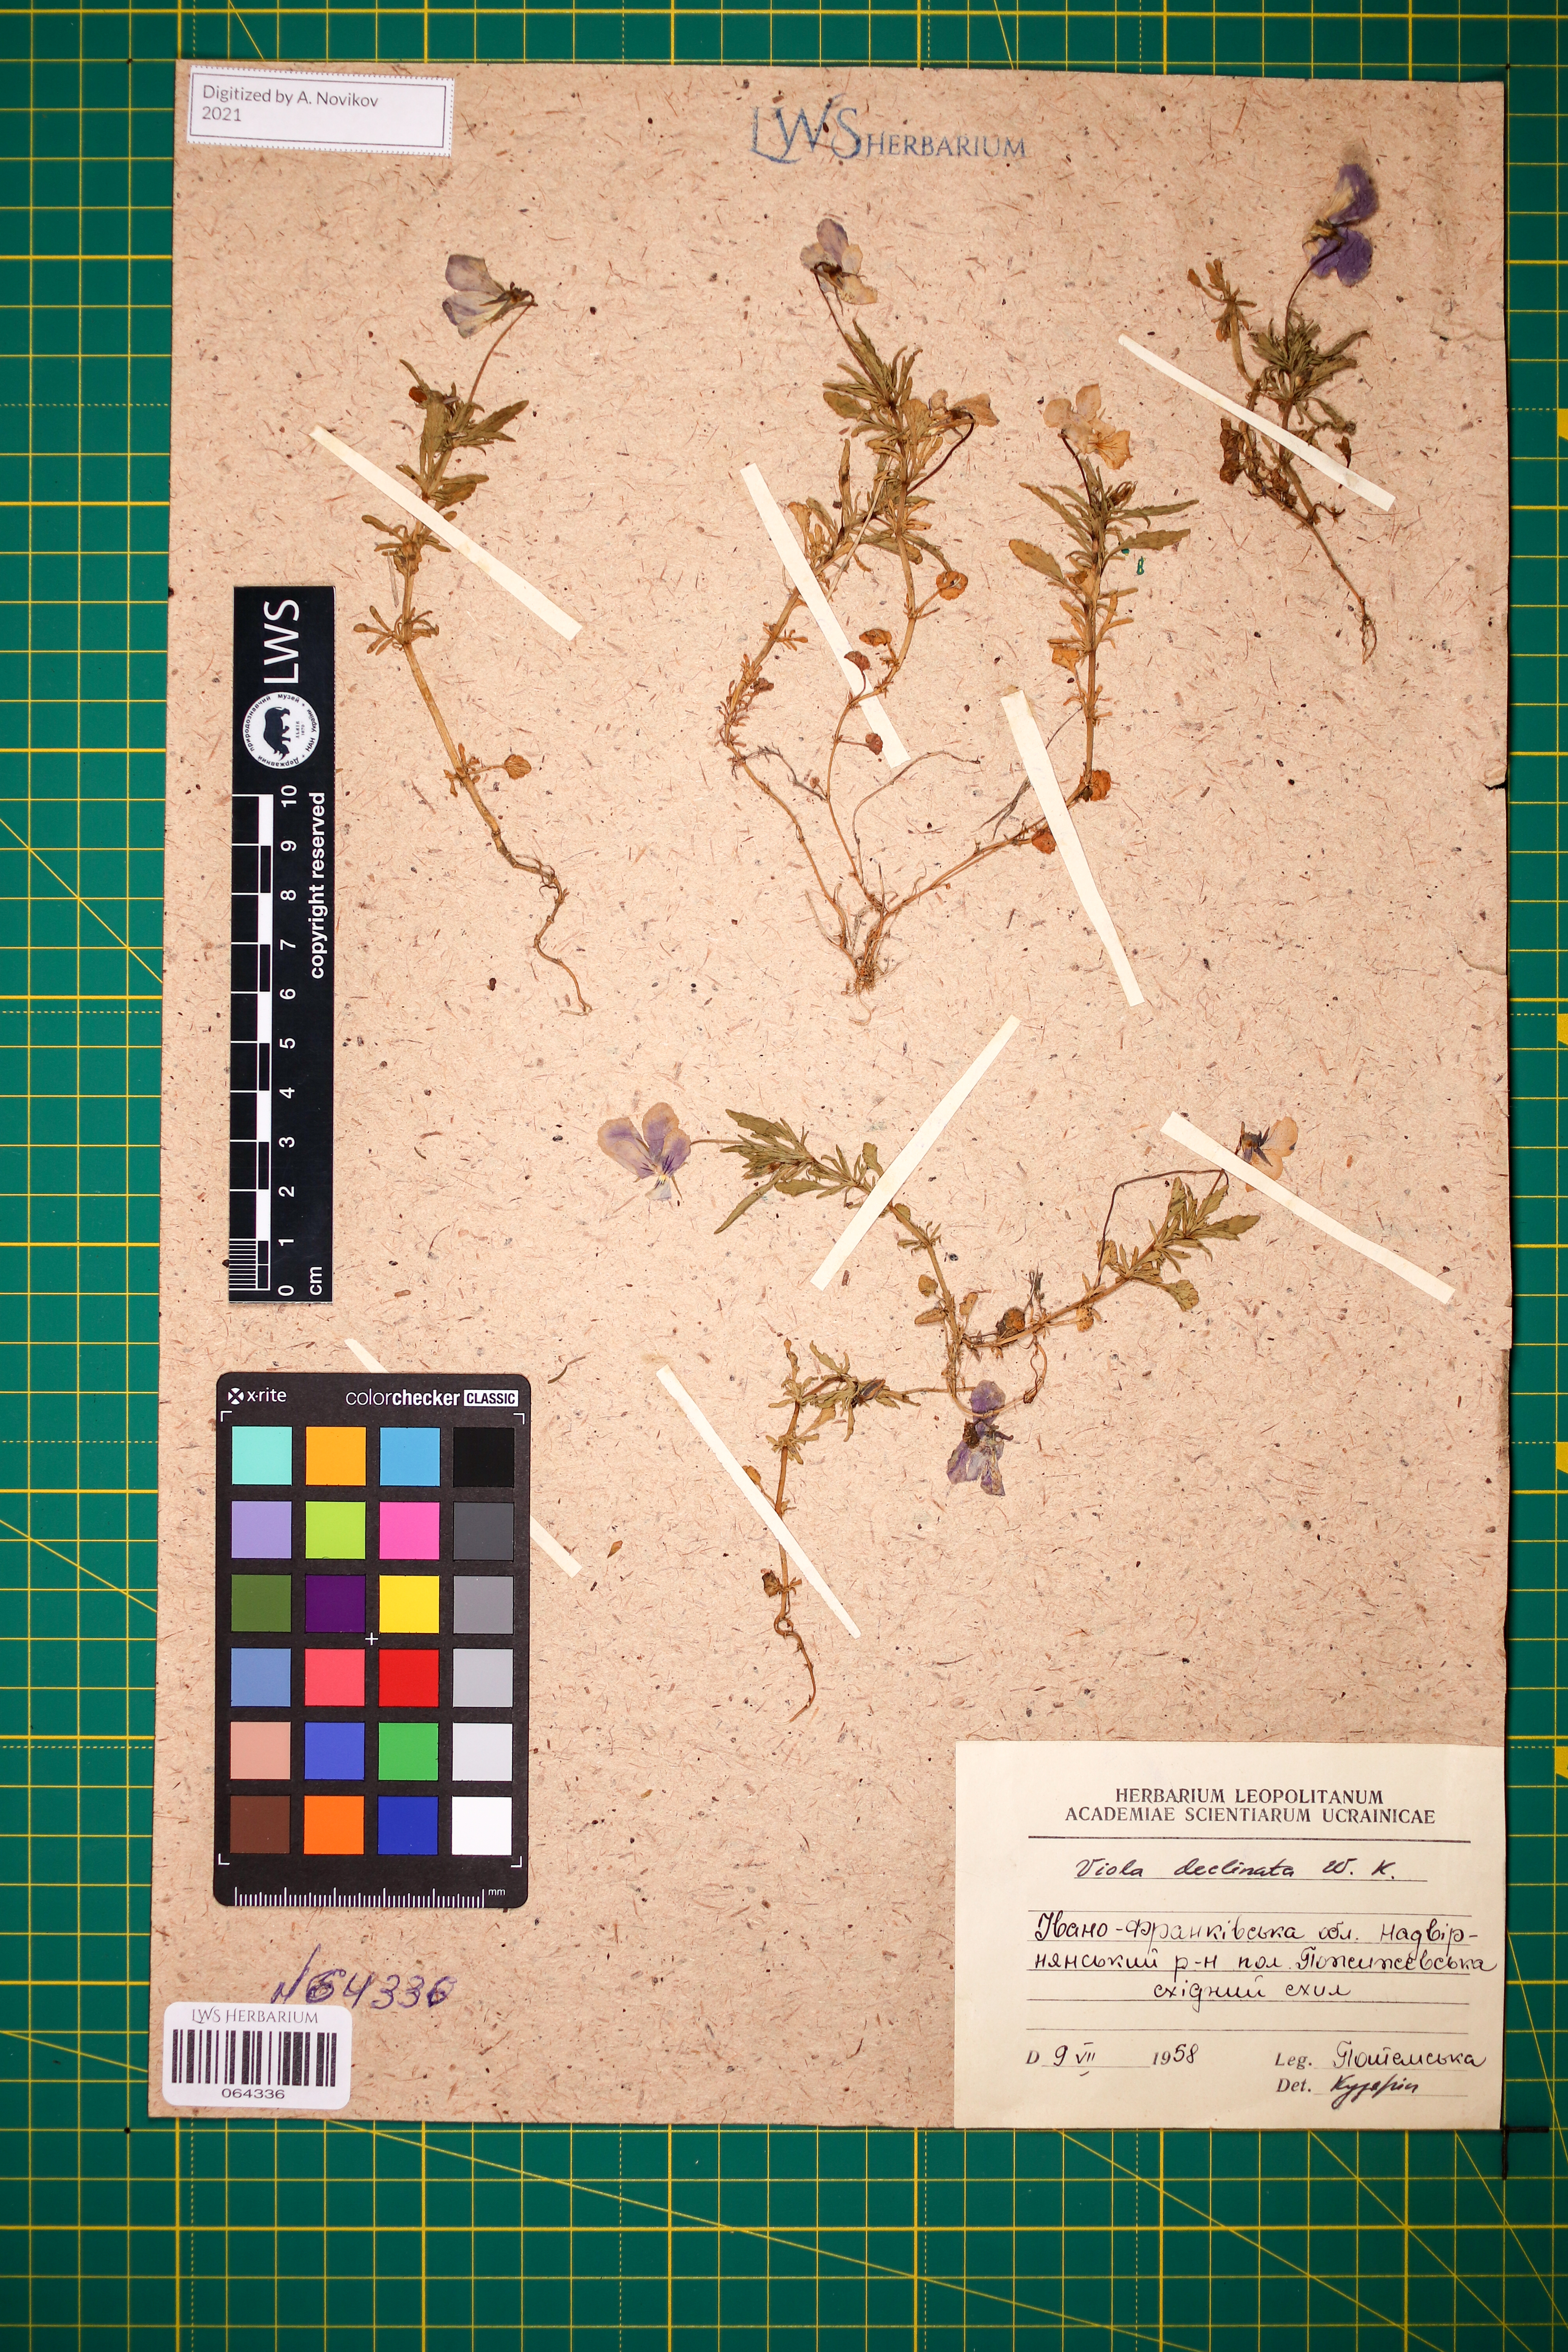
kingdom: Plantae
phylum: Tracheophyta
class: Magnoliopsida
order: Malpighiales
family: Violaceae
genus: Viola
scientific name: Viola declinata
